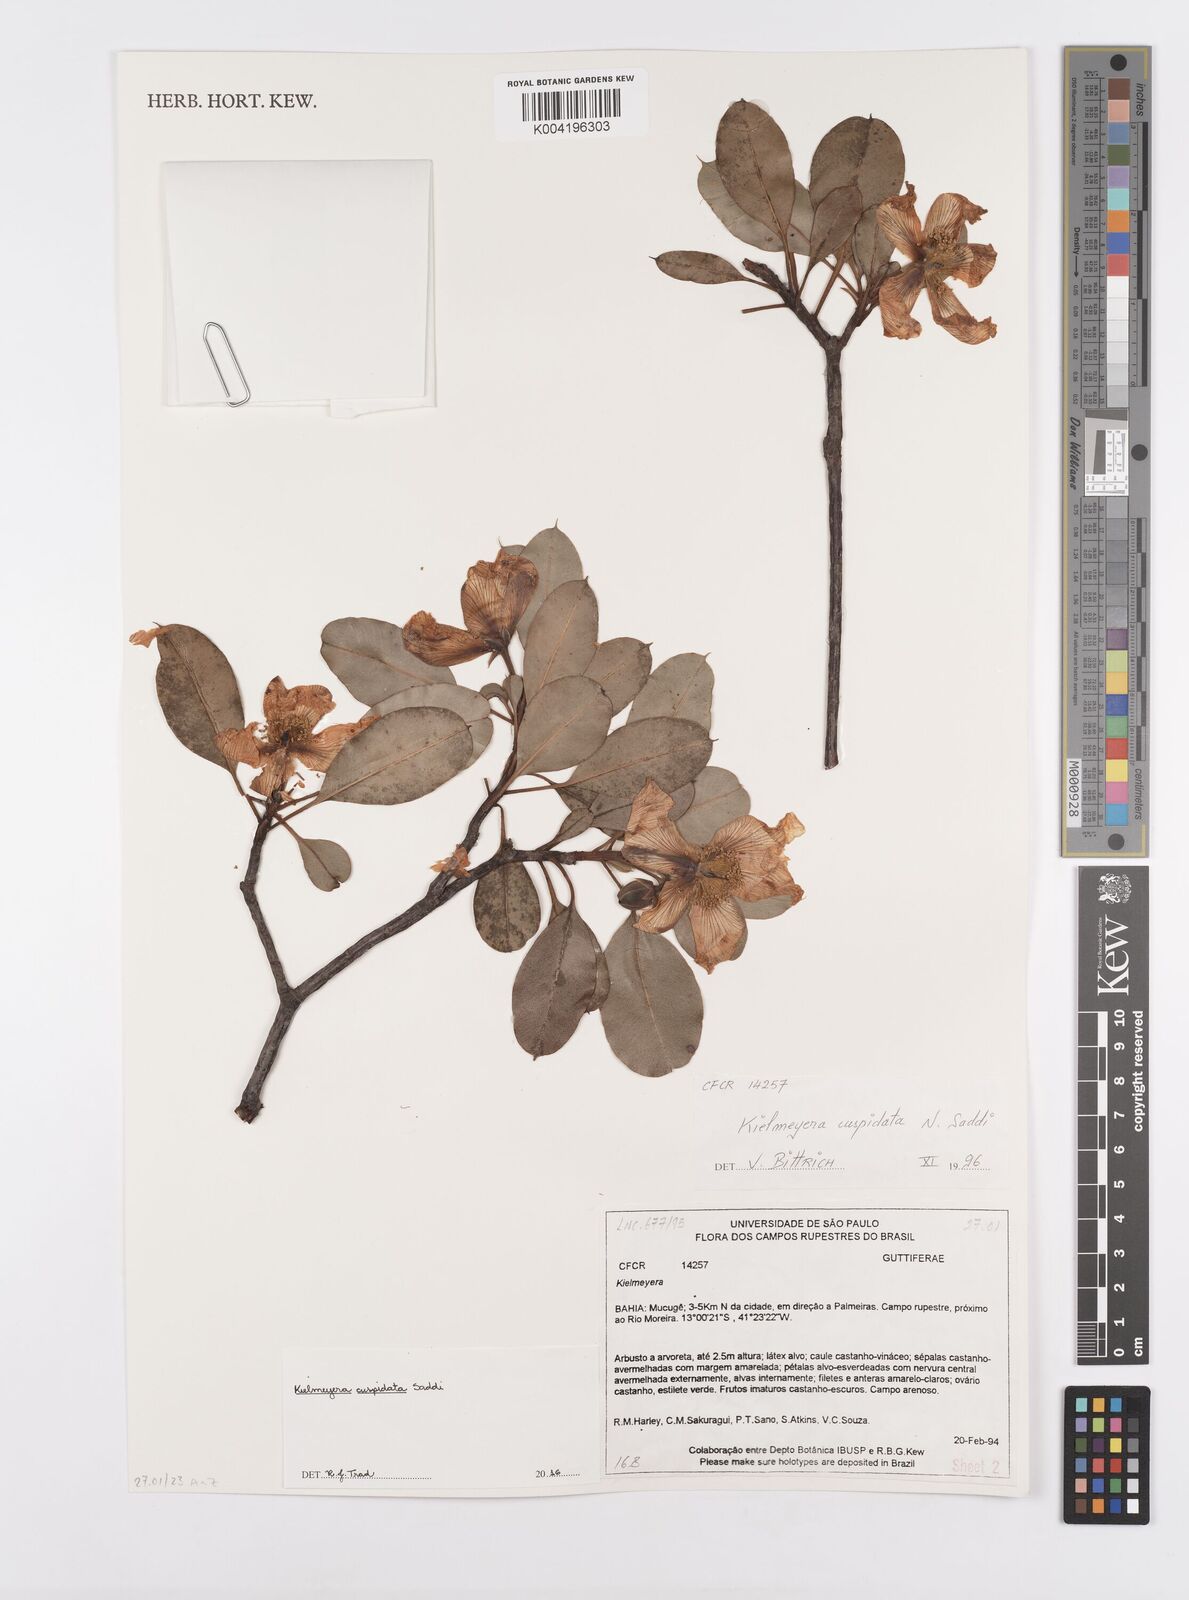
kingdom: Plantae
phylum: Tracheophyta
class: Magnoliopsida
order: Malpighiales
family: Calophyllaceae
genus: Kielmeyera
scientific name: Kielmeyera cuspidata
